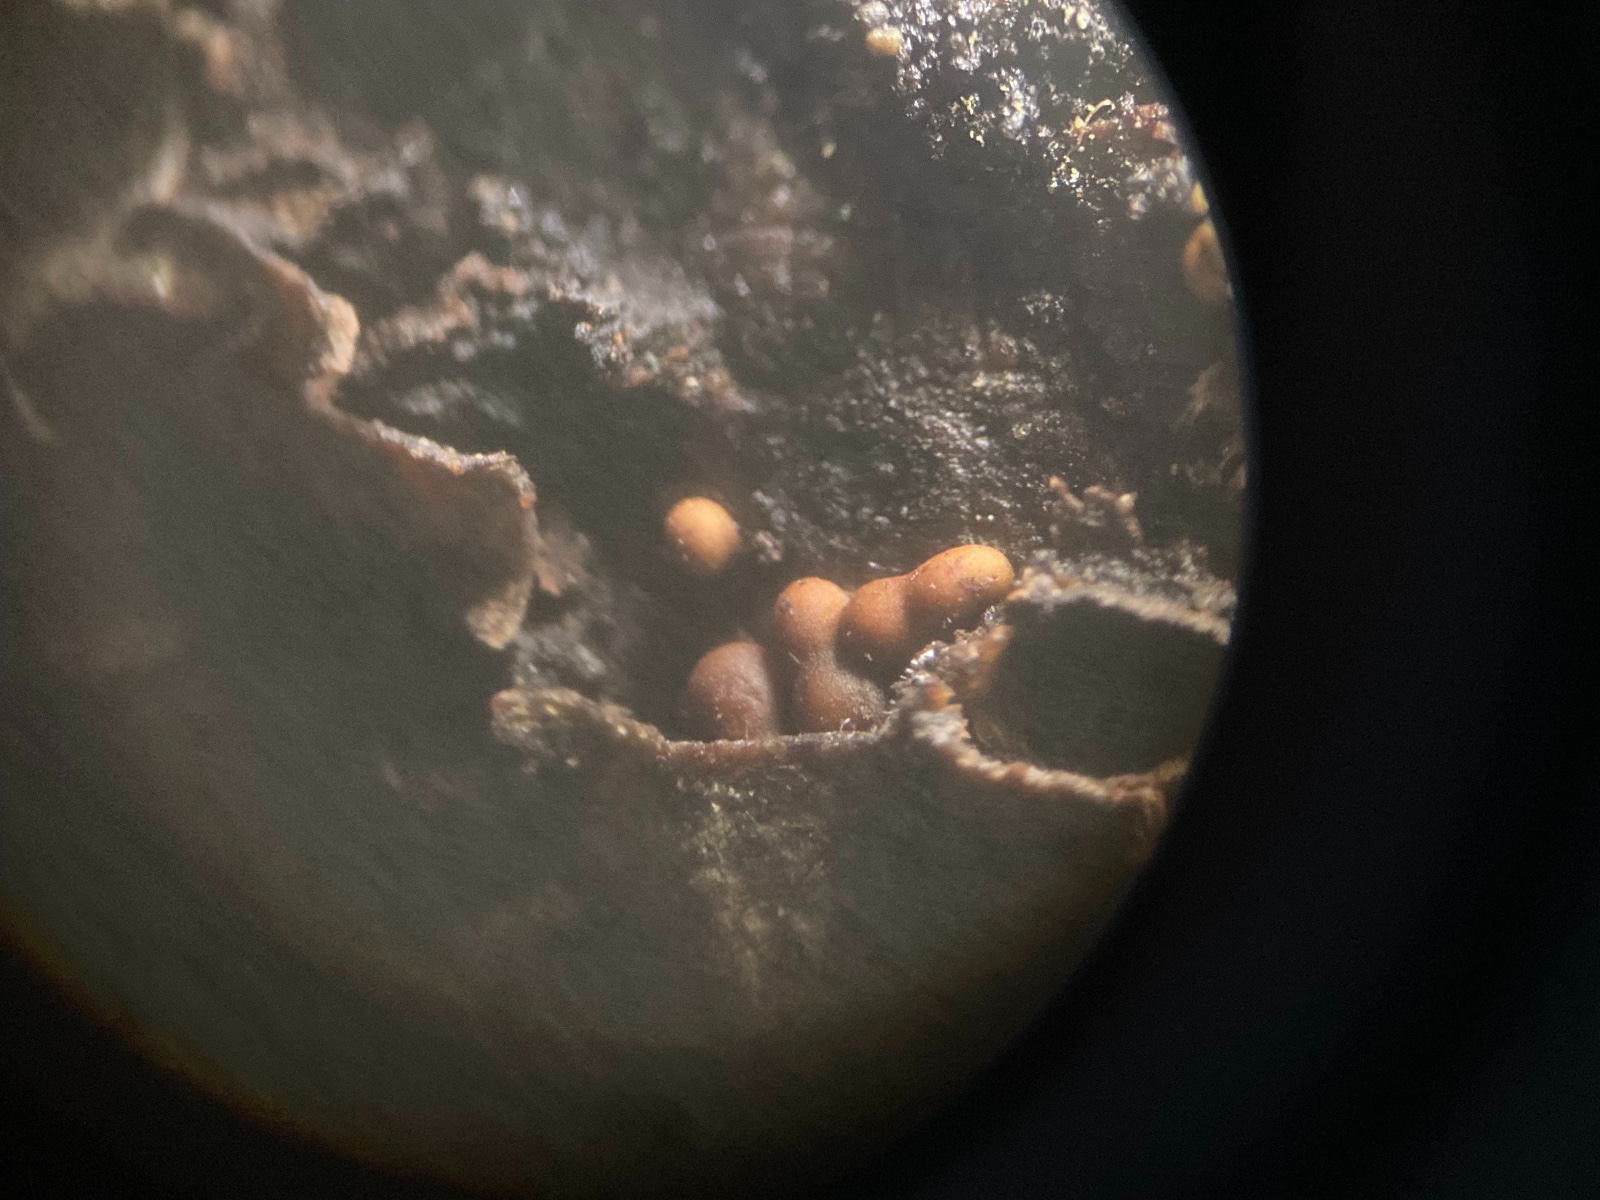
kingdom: Protozoa
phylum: Mycetozoa
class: Myxomycetes
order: Trichiales
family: Trichiaceae
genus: Trichia
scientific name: Trichia contorta
